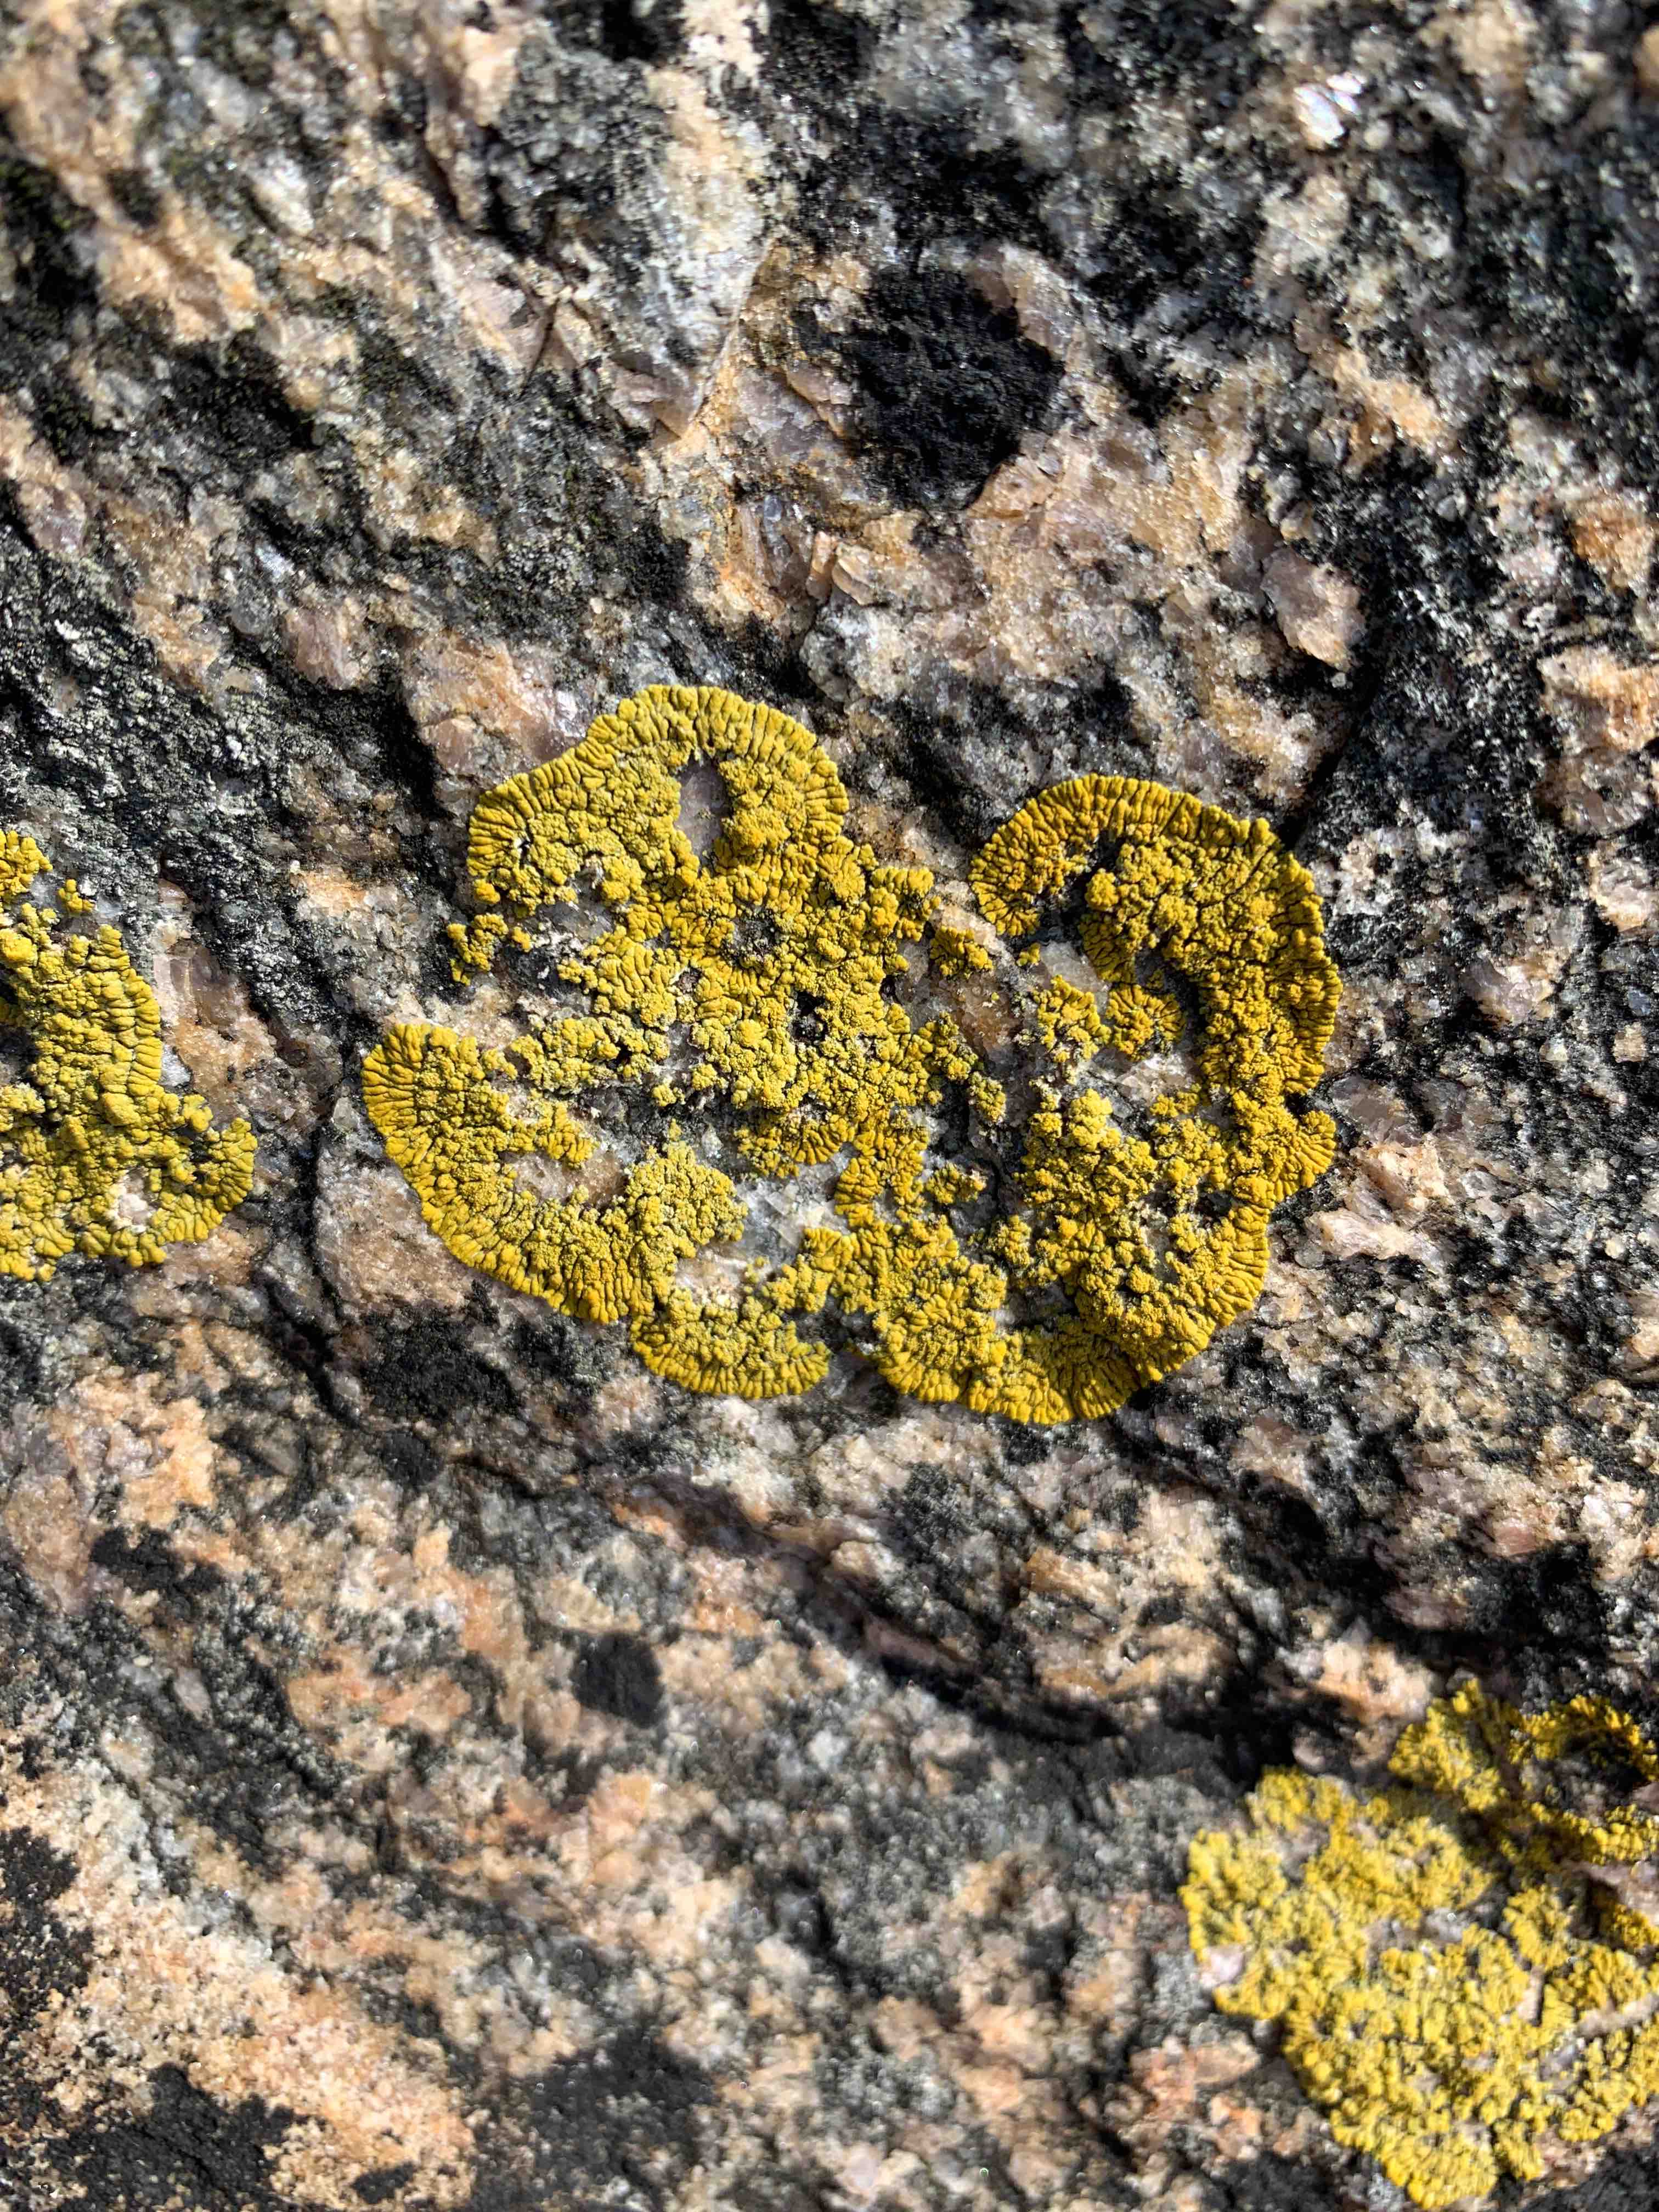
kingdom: Fungi
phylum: Ascomycota
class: Lecanoromycetes
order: Teloschistales
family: Teloschistaceae
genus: Verrucoplaca
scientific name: Verrucoplaca verruculifera
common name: koldkyst-orangelav
